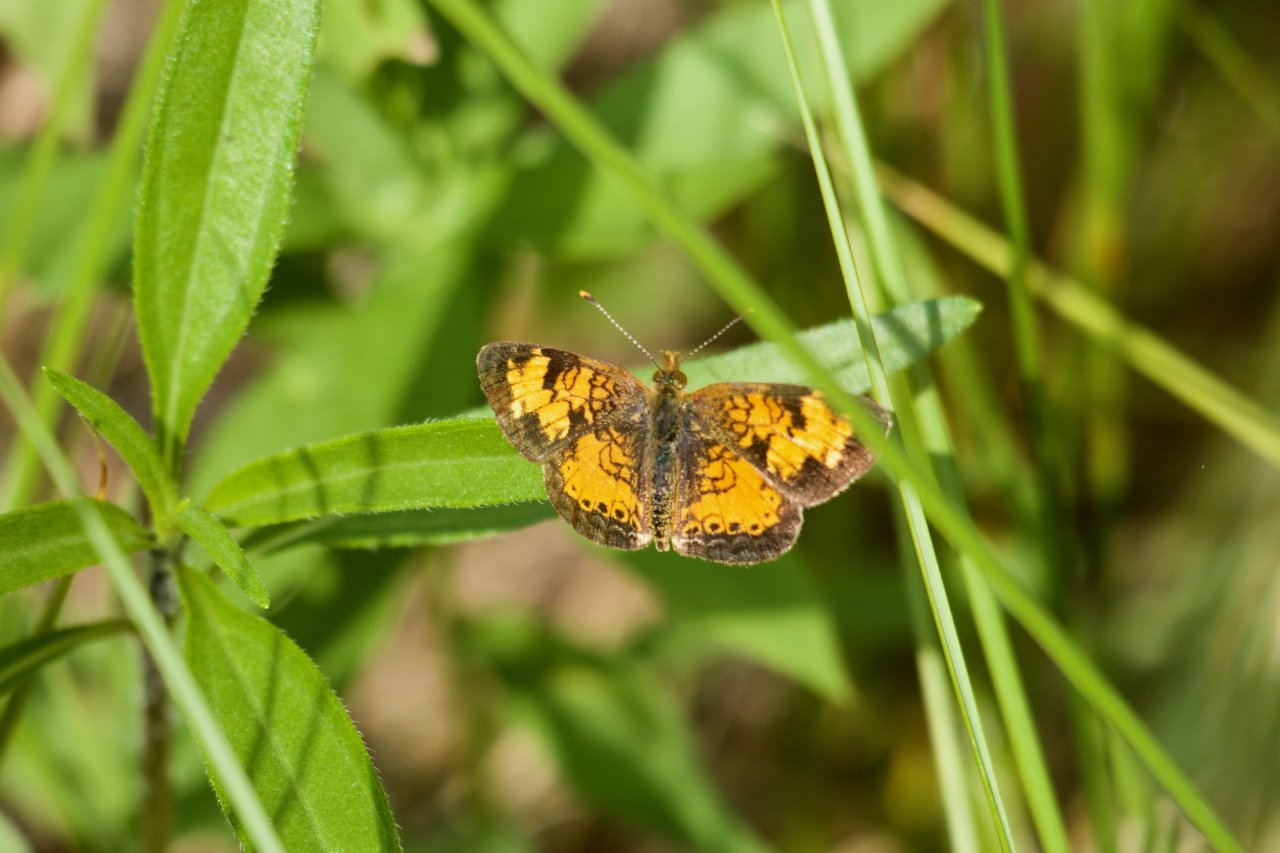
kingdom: Animalia
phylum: Arthropoda
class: Insecta
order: Lepidoptera
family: Nymphalidae
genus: Phyciodes
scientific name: Phyciodes tharos
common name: Northern Crescent
